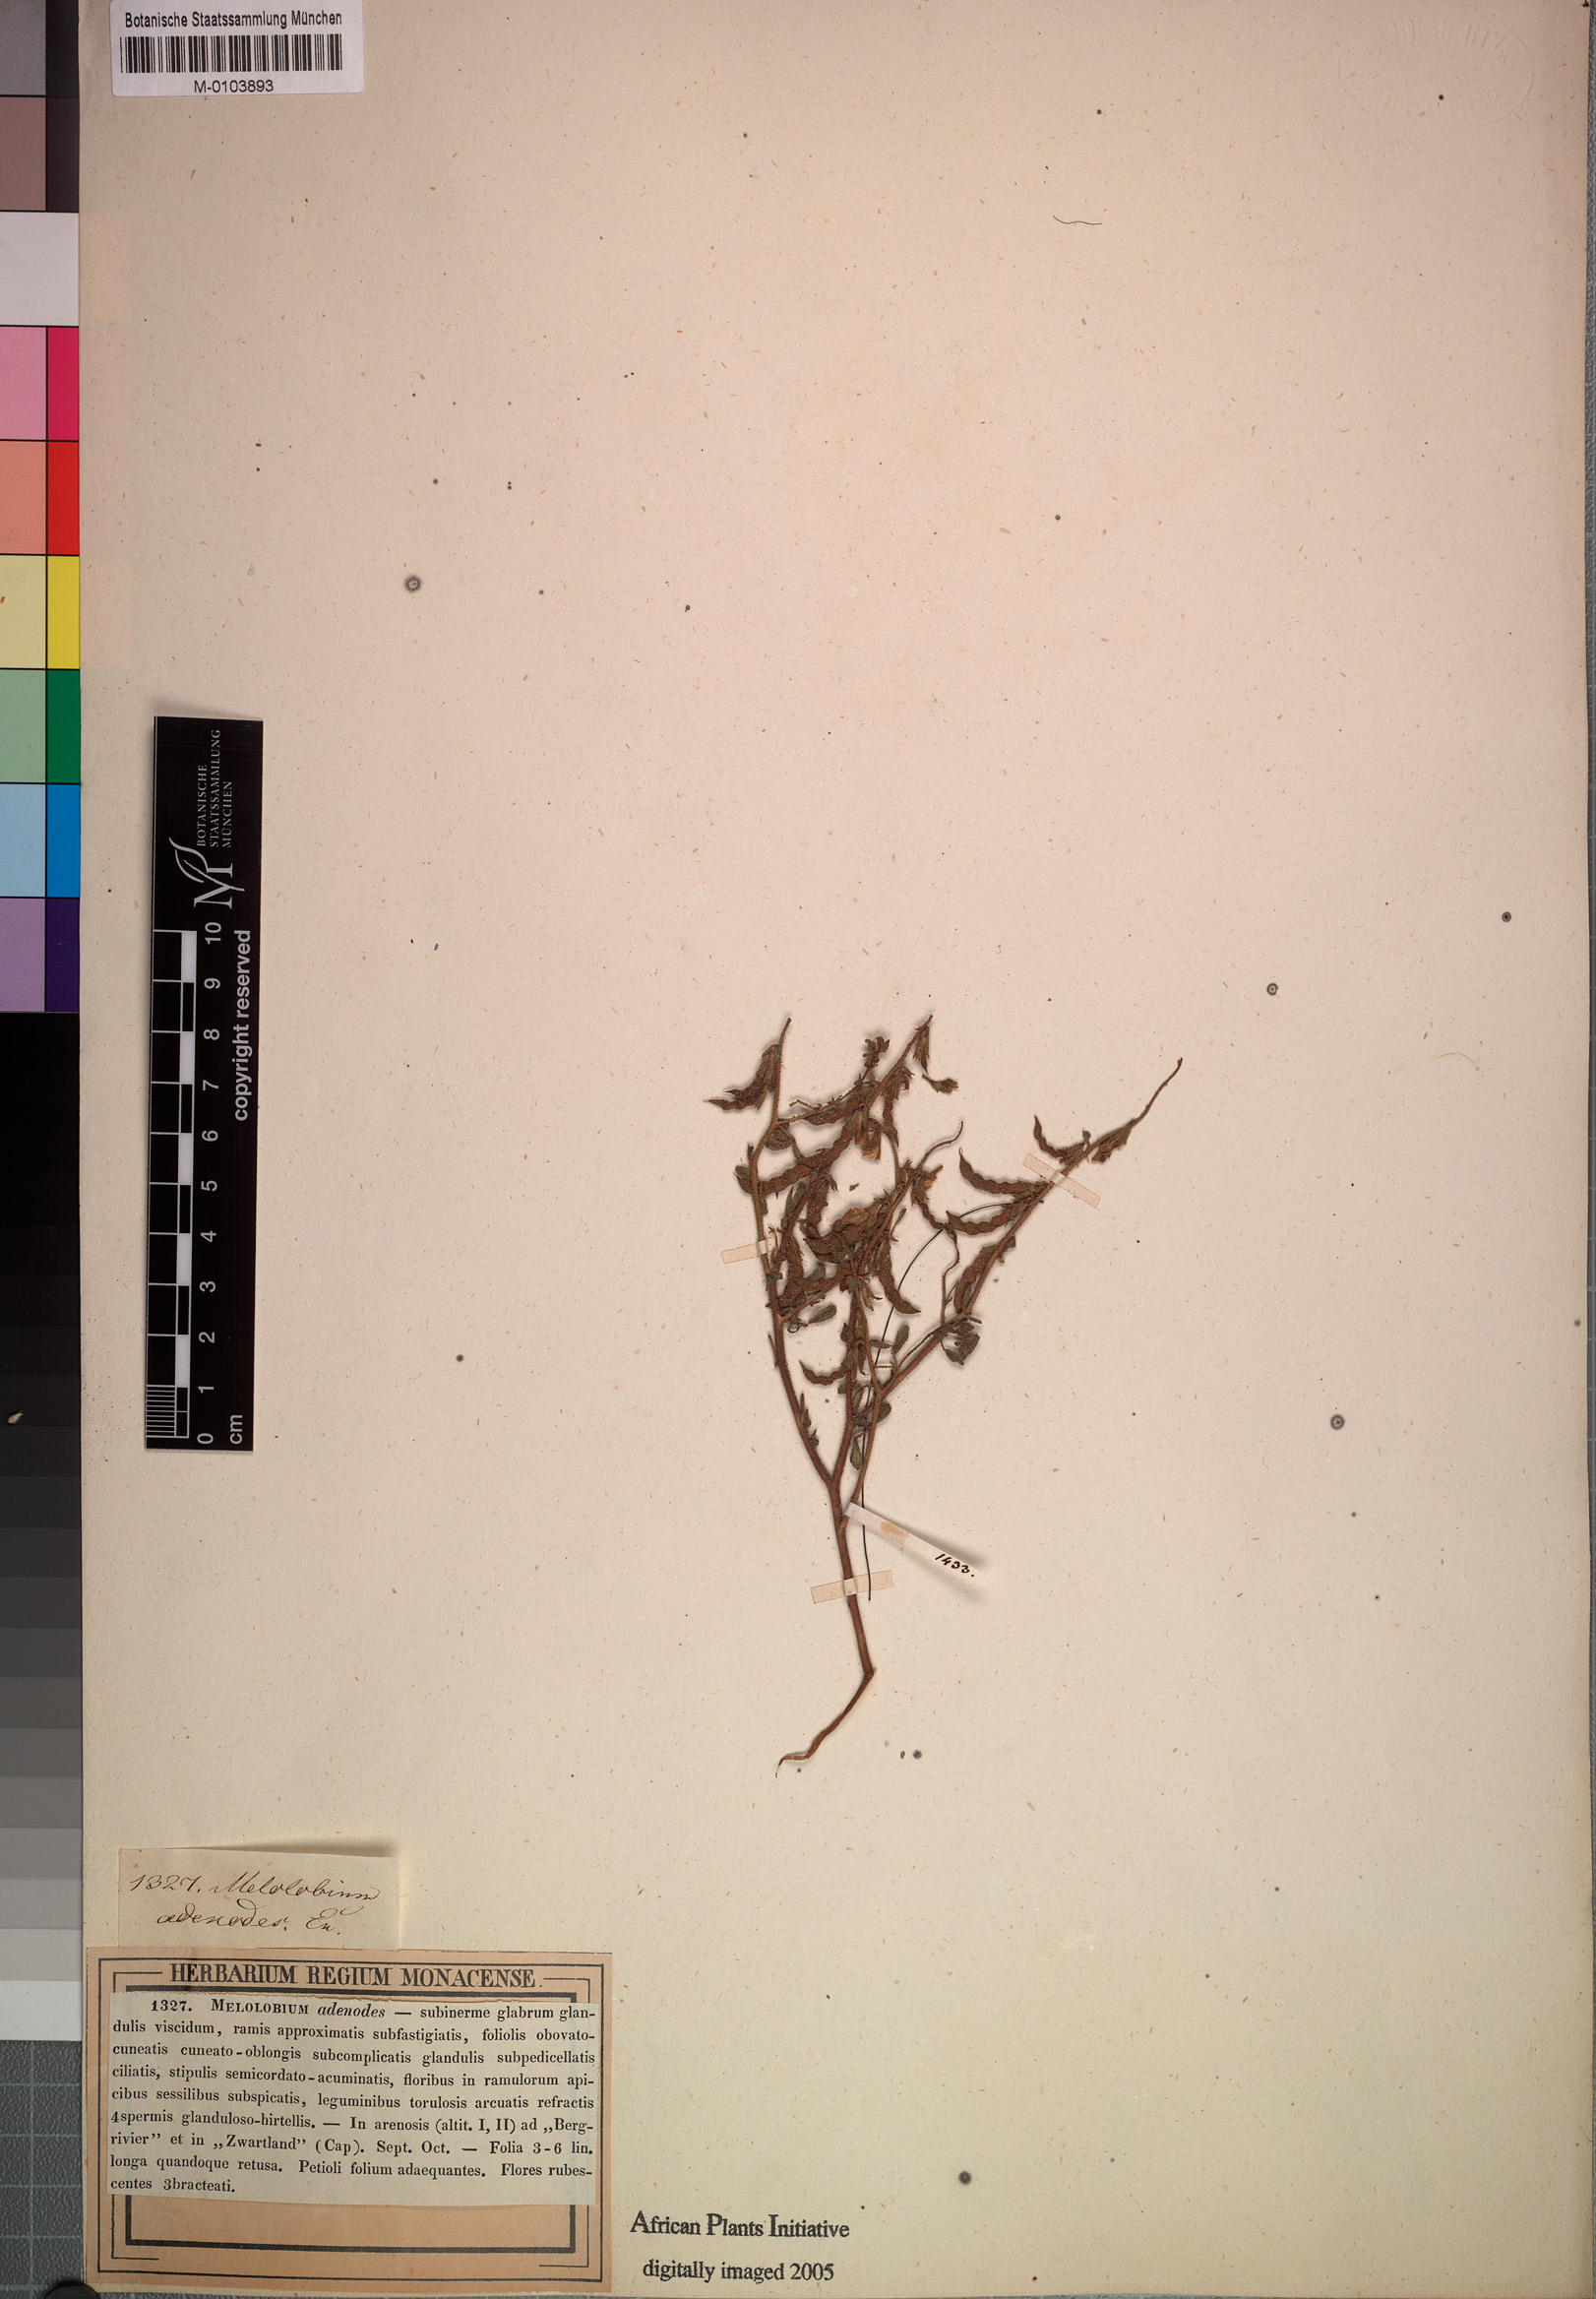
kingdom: Plantae
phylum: Tracheophyta
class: Magnoliopsida
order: Fabales
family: Fabaceae
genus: Melolobium
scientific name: Melolobium adenoides
